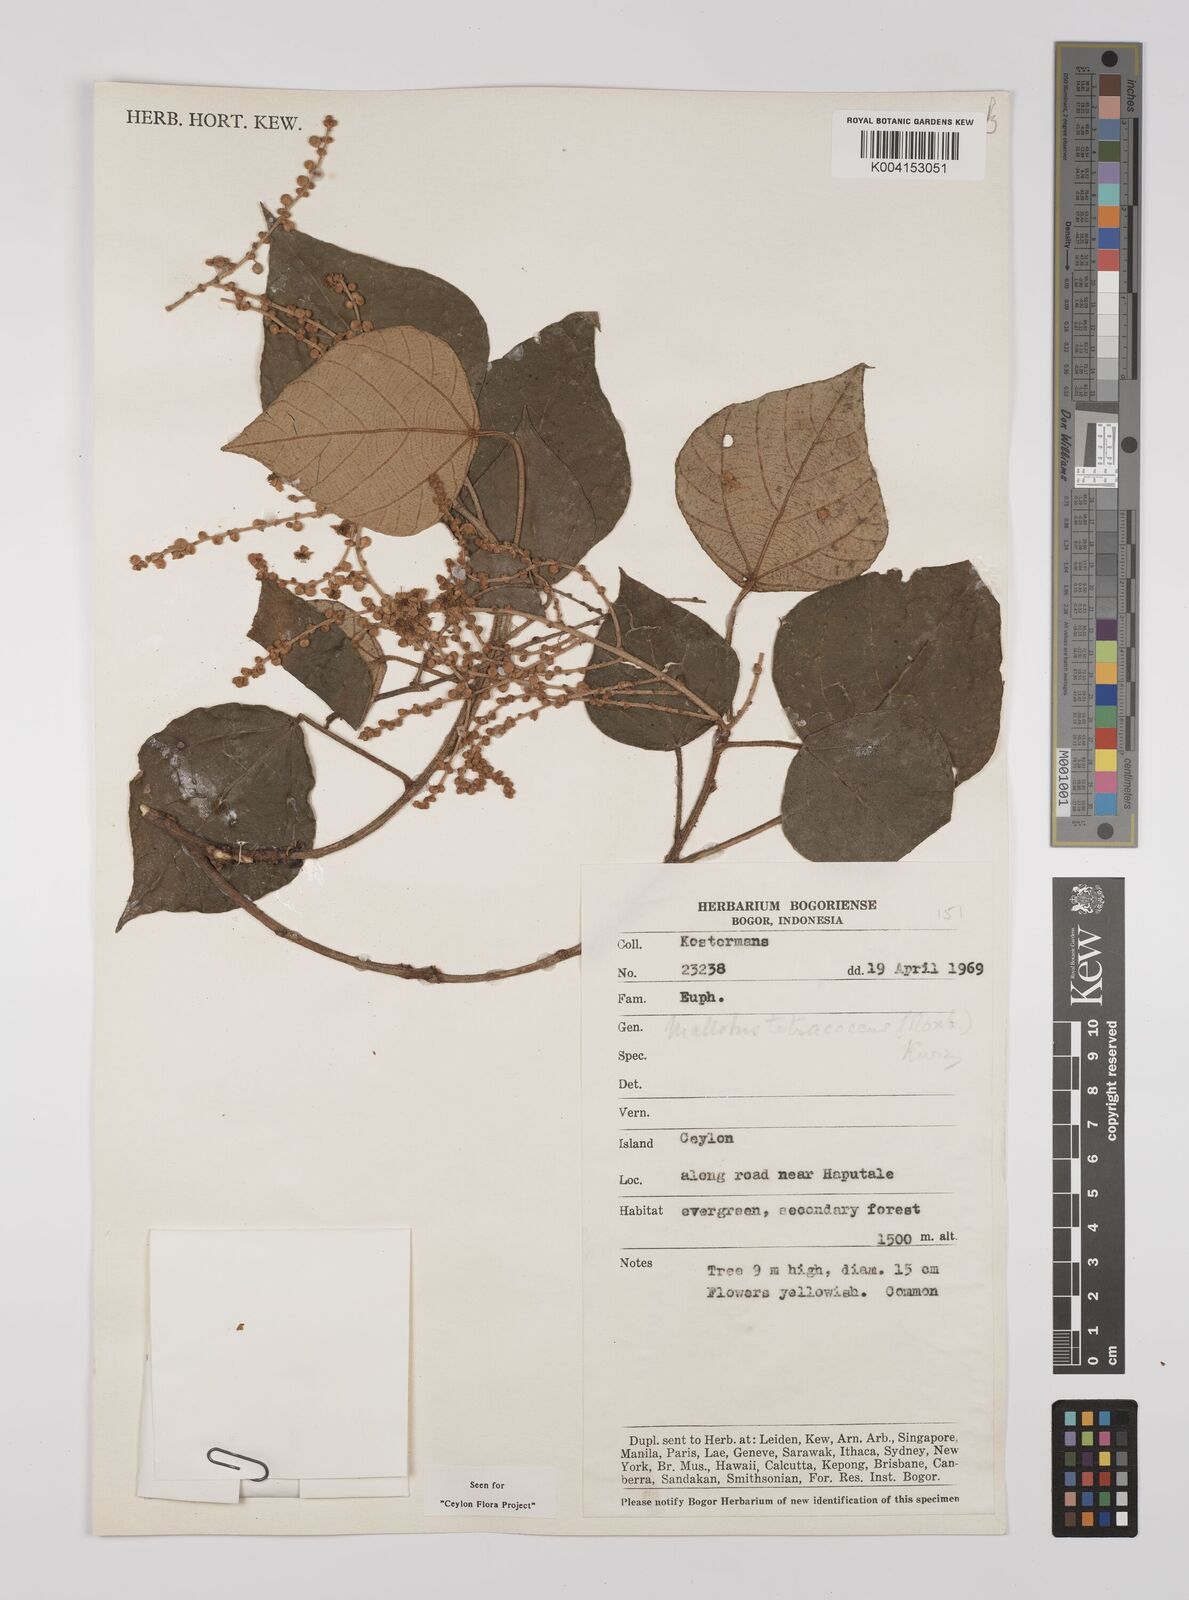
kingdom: Plantae
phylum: Tracheophyta
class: Magnoliopsida
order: Malpighiales
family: Euphorbiaceae
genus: Mallotus
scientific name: Mallotus tetracoccus
